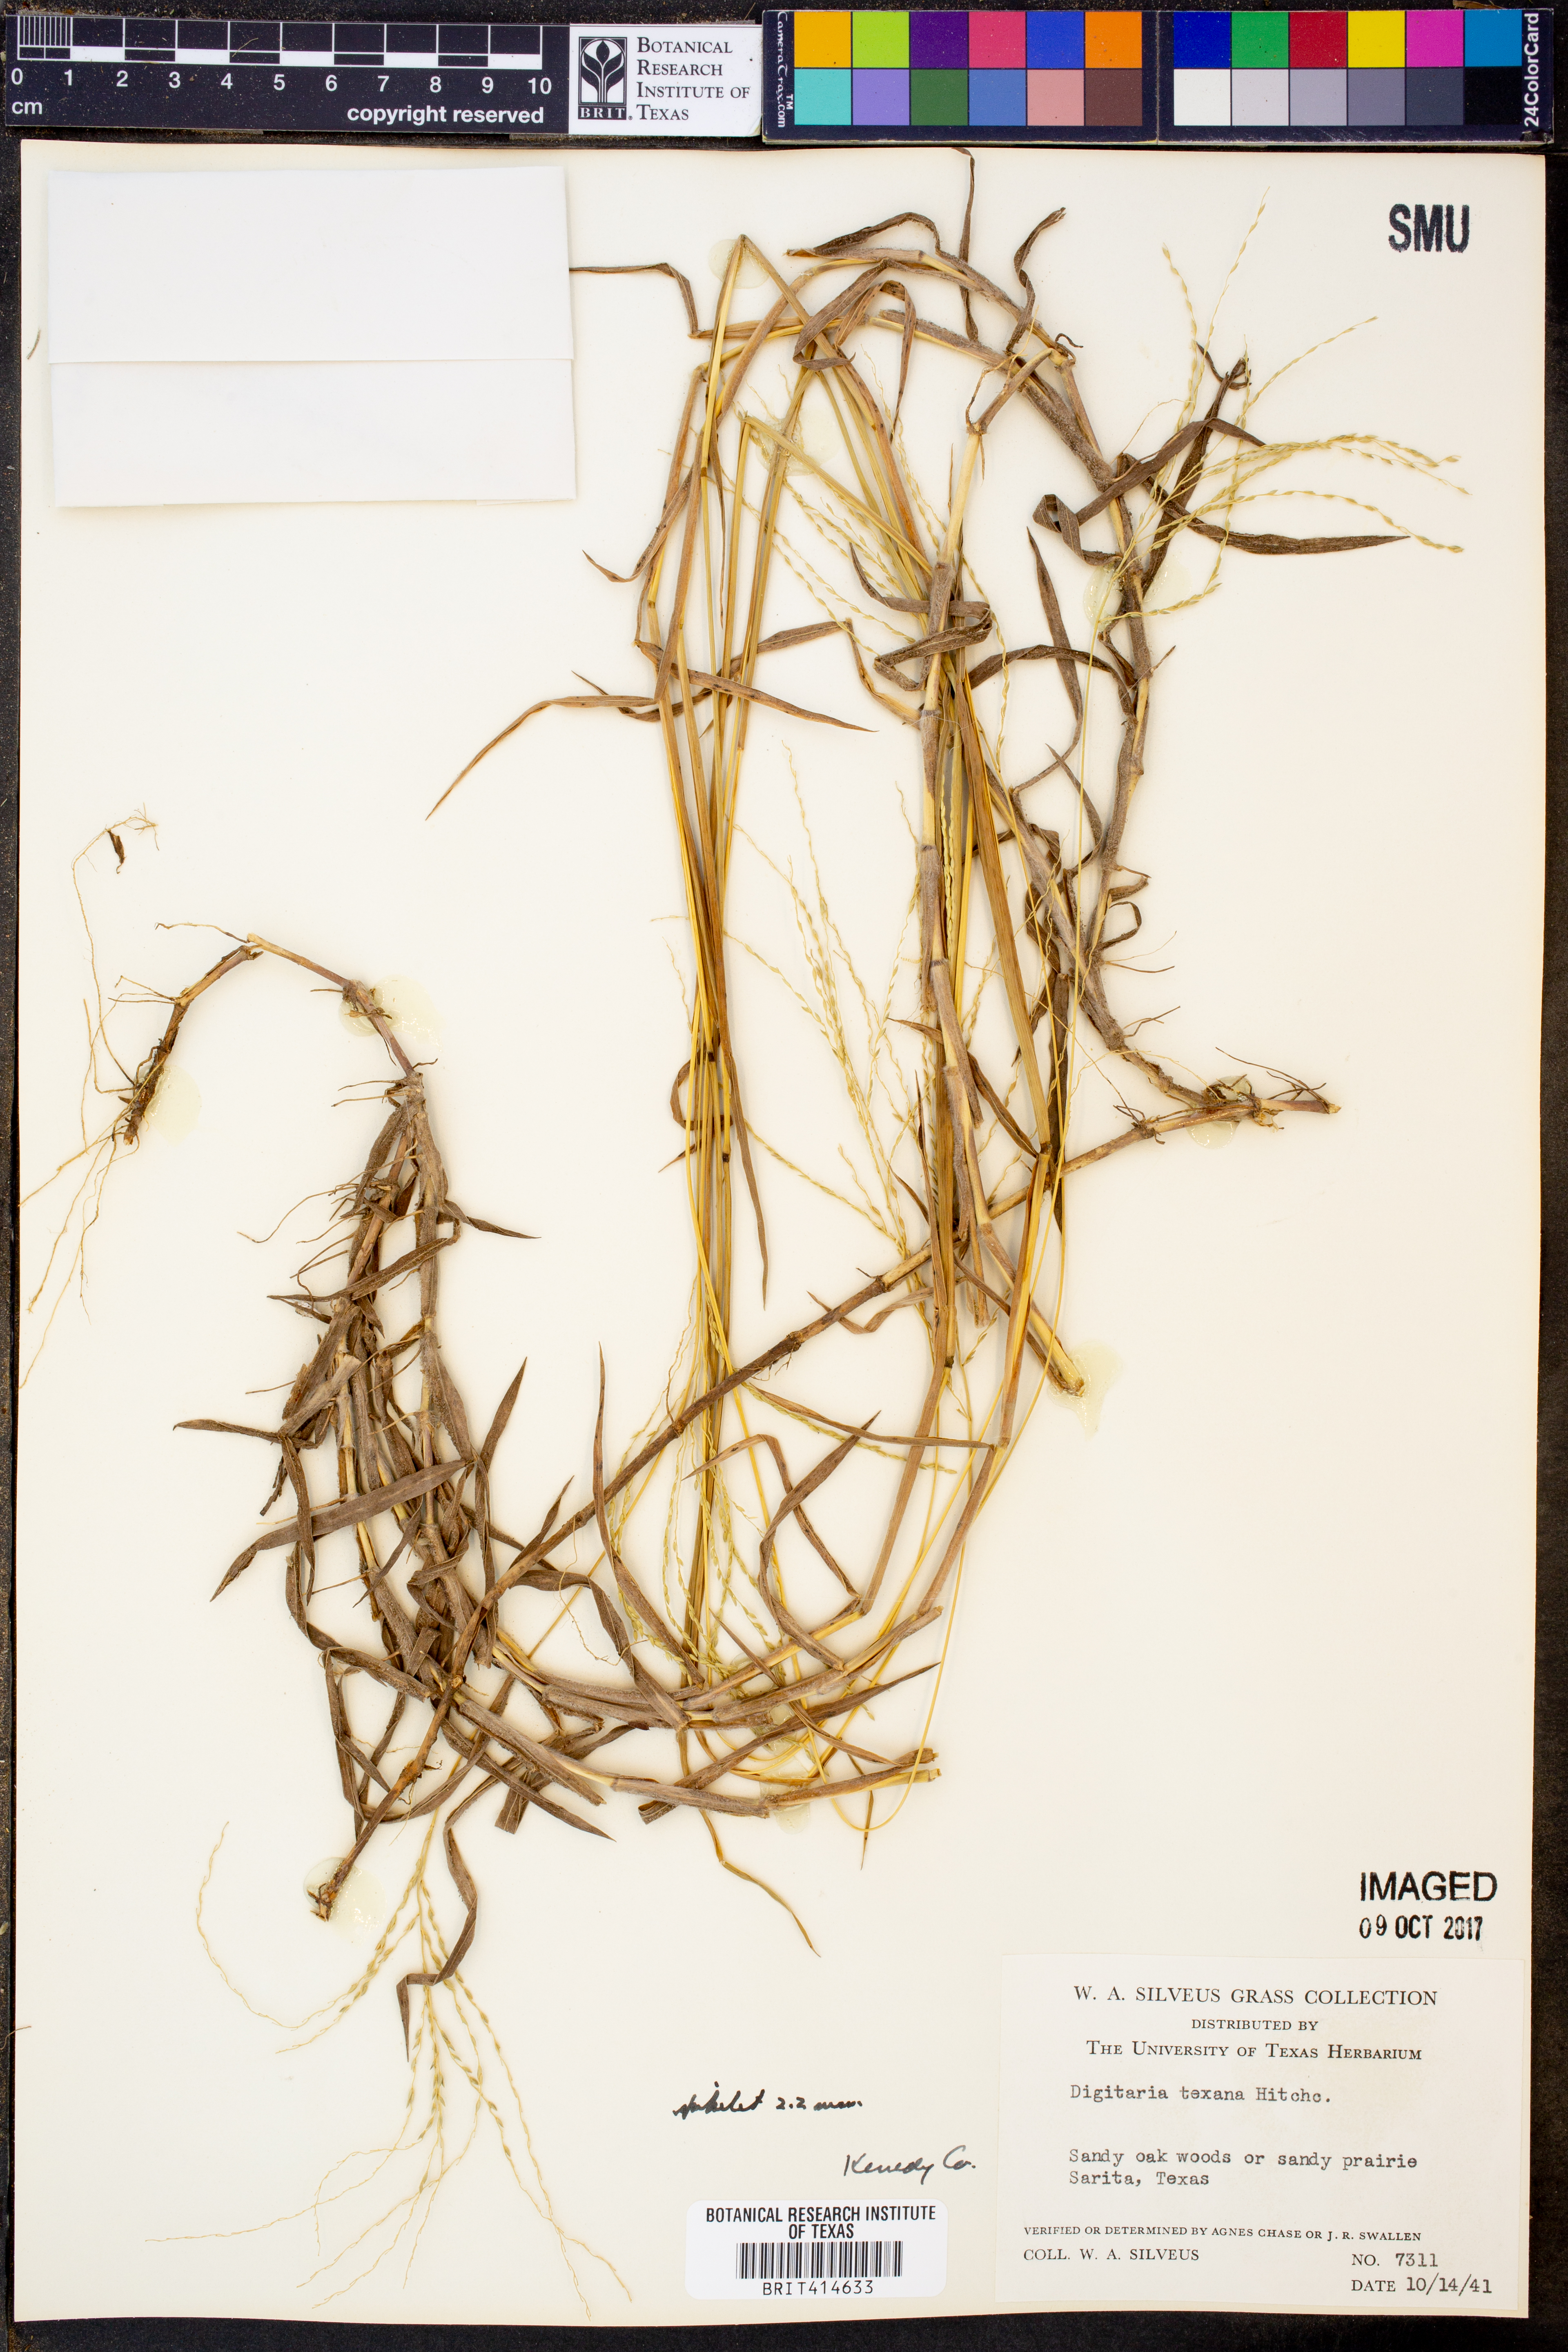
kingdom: Plantae
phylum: Tracheophyta
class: Liliopsida
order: Poales
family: Poaceae
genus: Digitaria
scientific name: Digitaria texana
